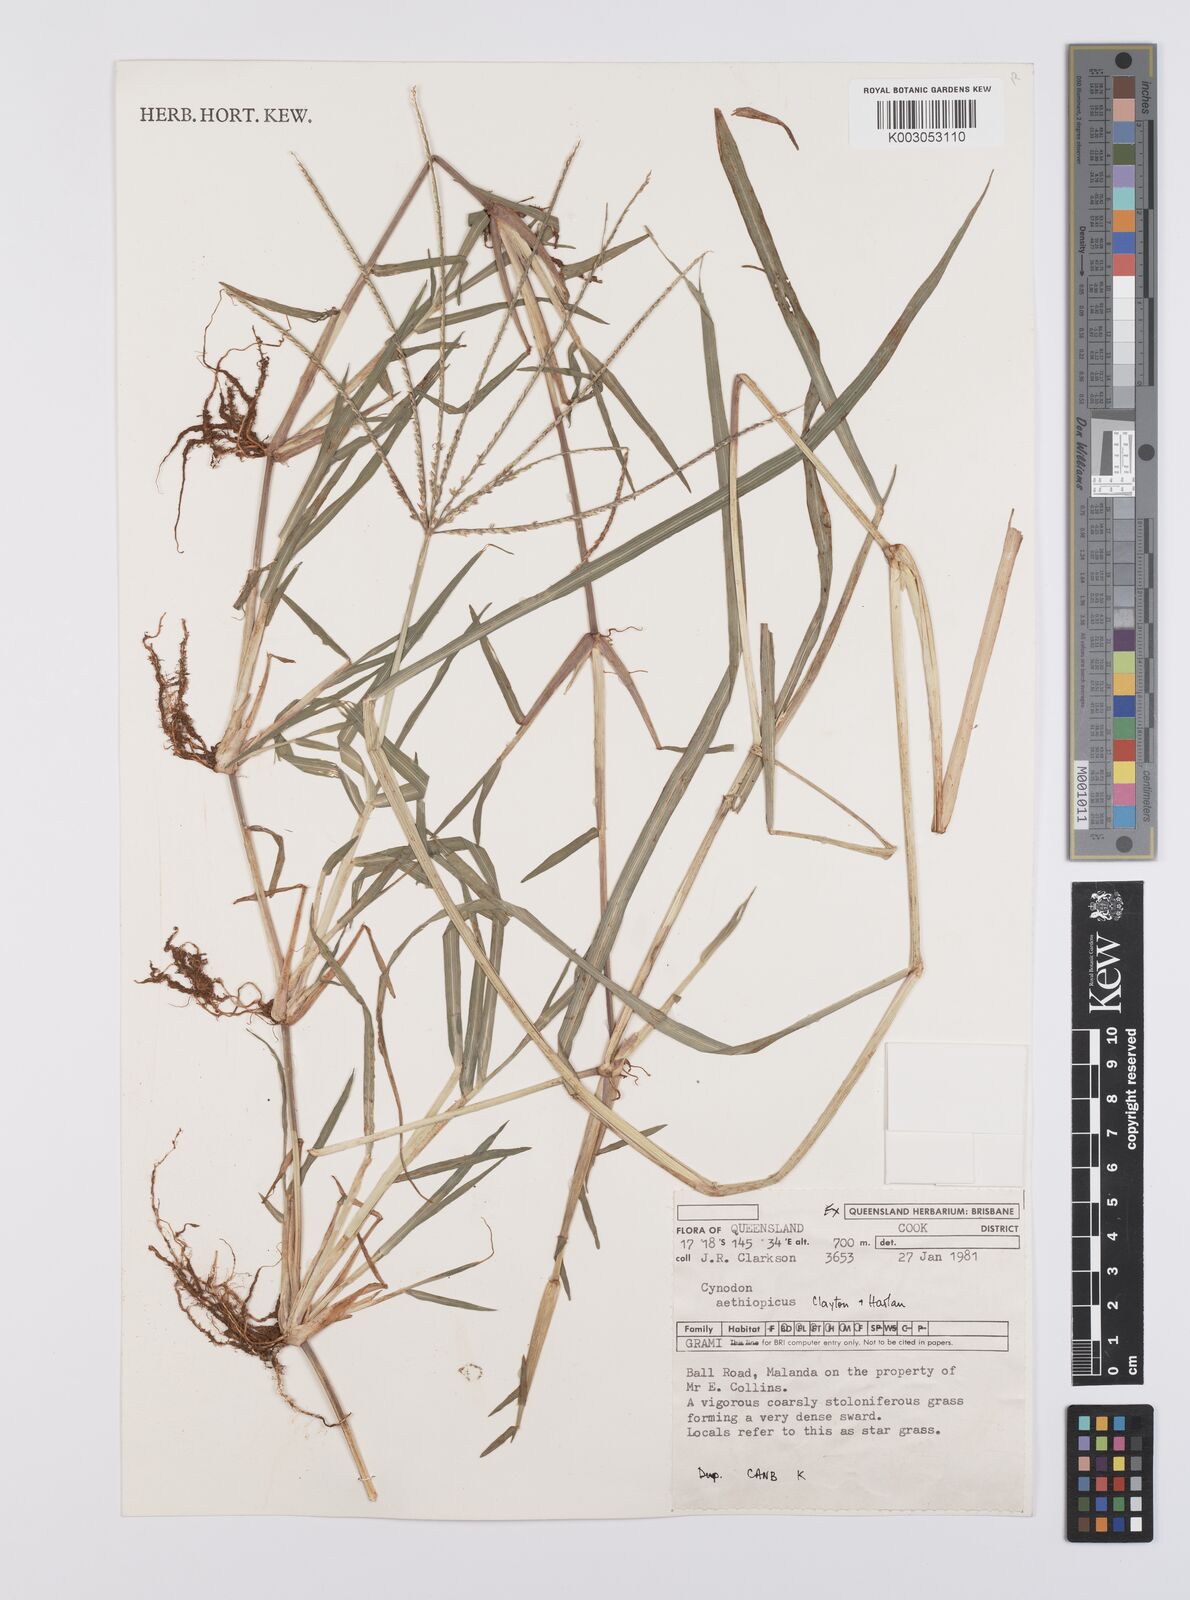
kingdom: Plantae
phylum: Tracheophyta
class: Liliopsida
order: Poales
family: Poaceae
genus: Cynodon
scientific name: Cynodon aethiopicus
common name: Ethiopian dogstooth grass
